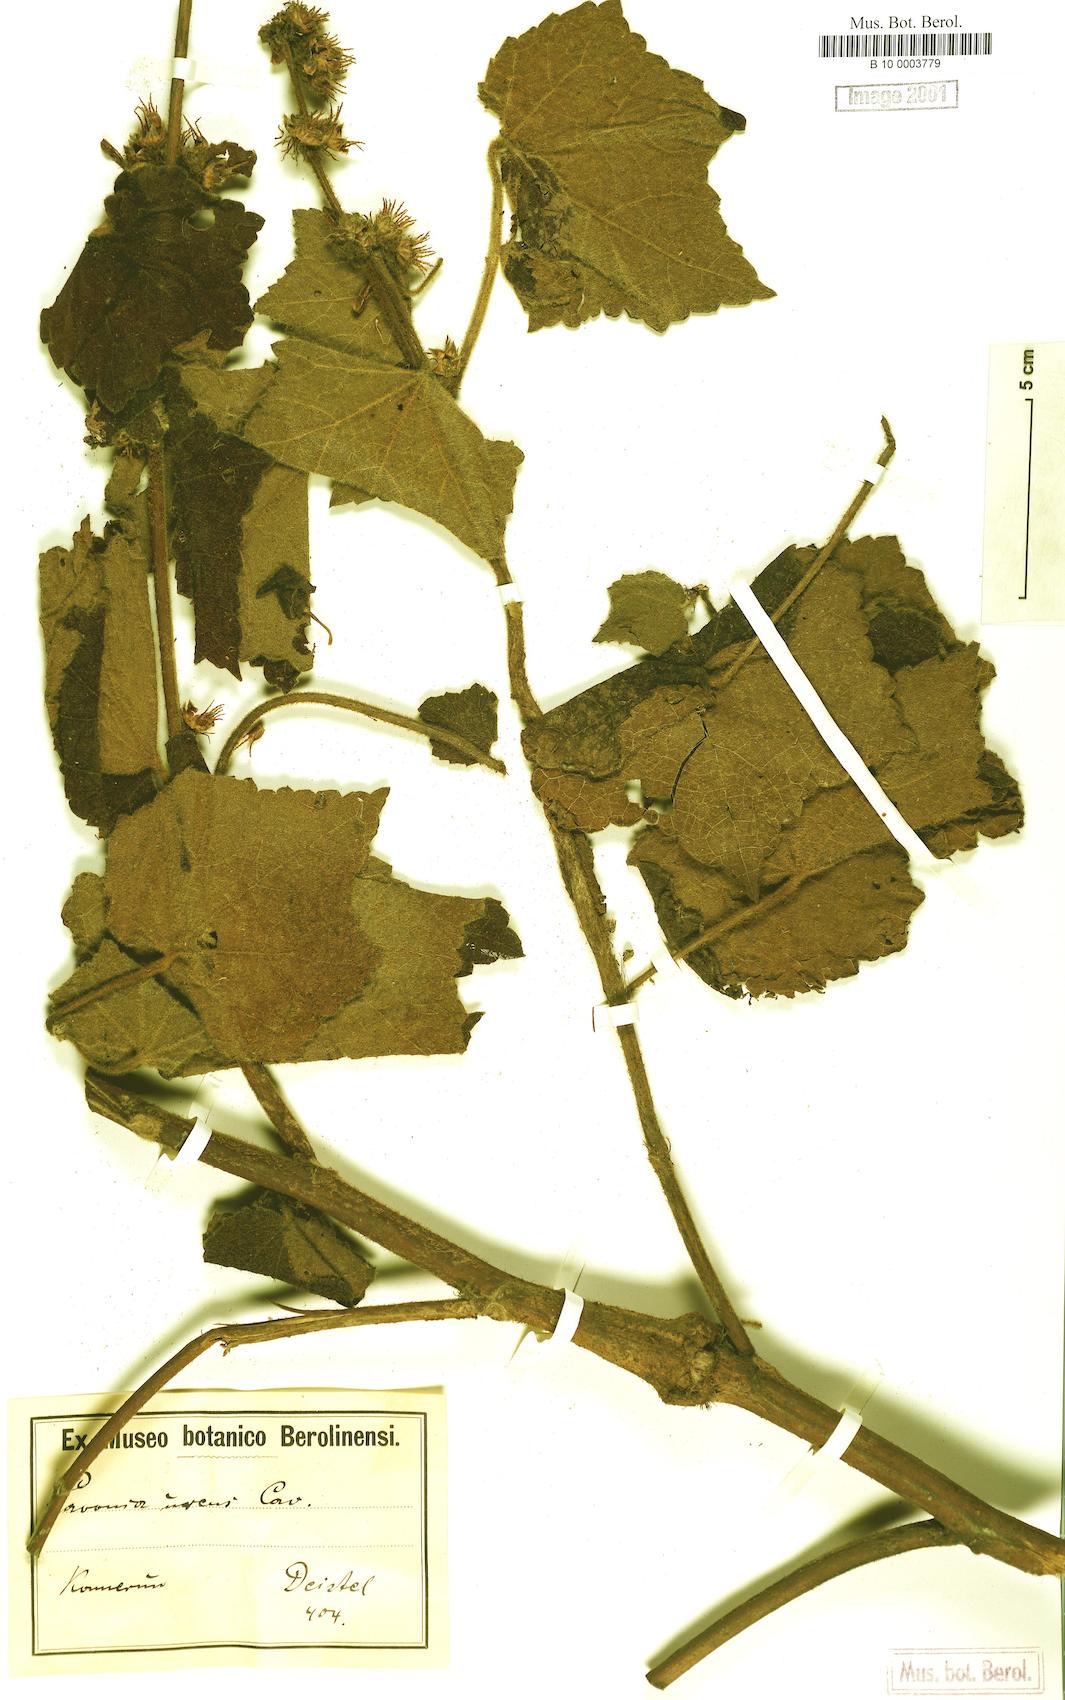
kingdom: Plantae
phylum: Tracheophyta
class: Magnoliopsida
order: Malvales
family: Malvaceae
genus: Pavonia
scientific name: Pavonia urens
